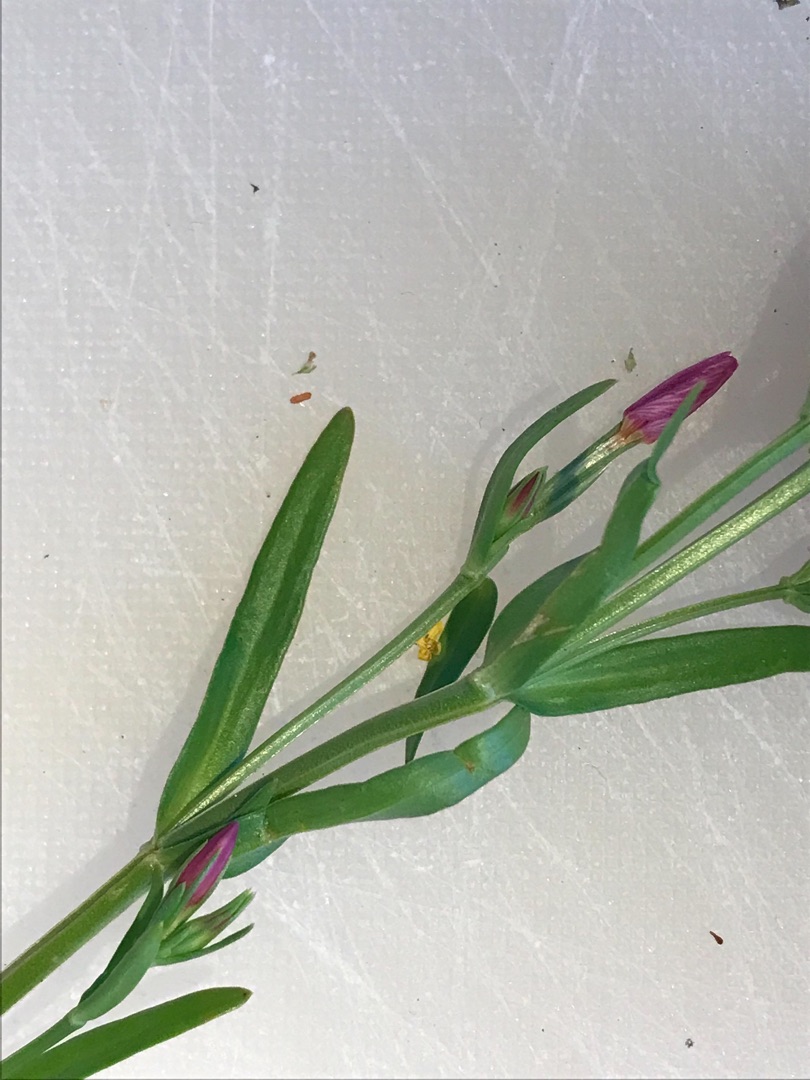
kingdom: Plantae
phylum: Tracheophyta
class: Magnoliopsida
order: Gentianales
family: Gentianaceae
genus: Centaurium
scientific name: Centaurium littorale
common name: Strand-tusindgylden
